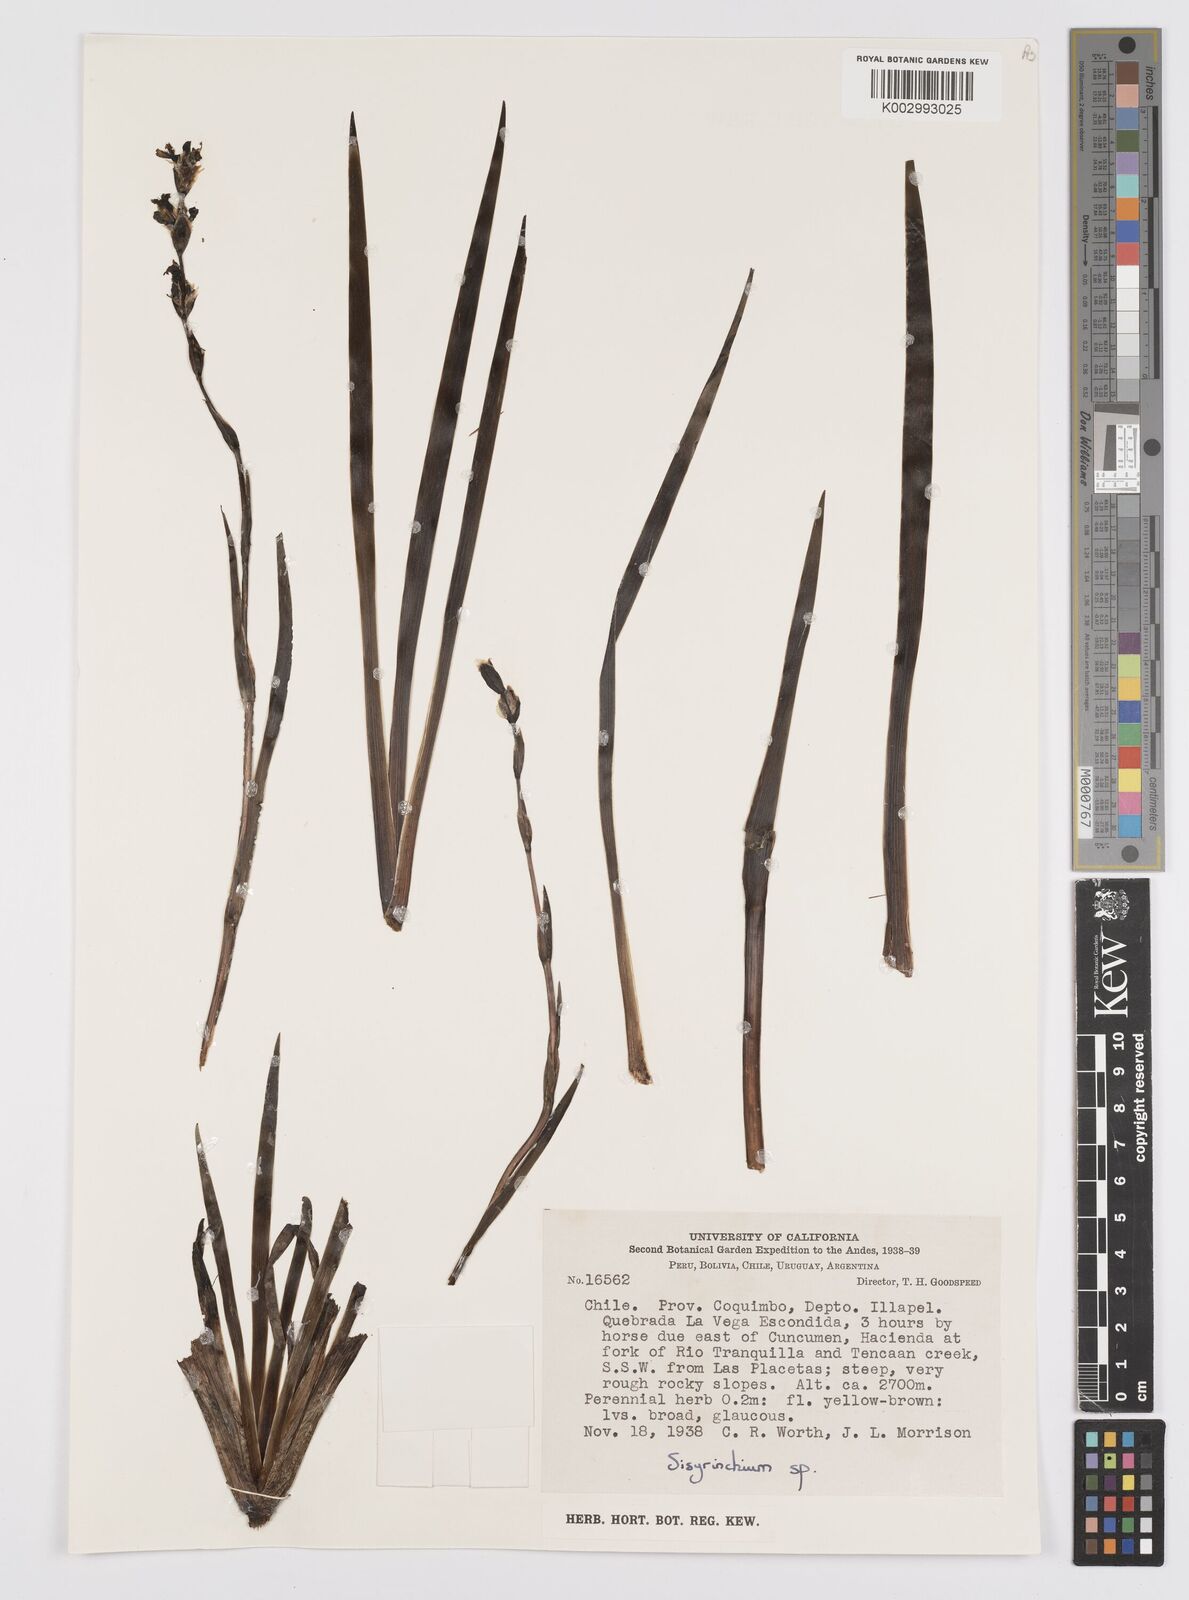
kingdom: Plantae
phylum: Tracheophyta
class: Liliopsida
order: Asparagales
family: Iridaceae
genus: Sisyrinchium
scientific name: Sisyrinchium
